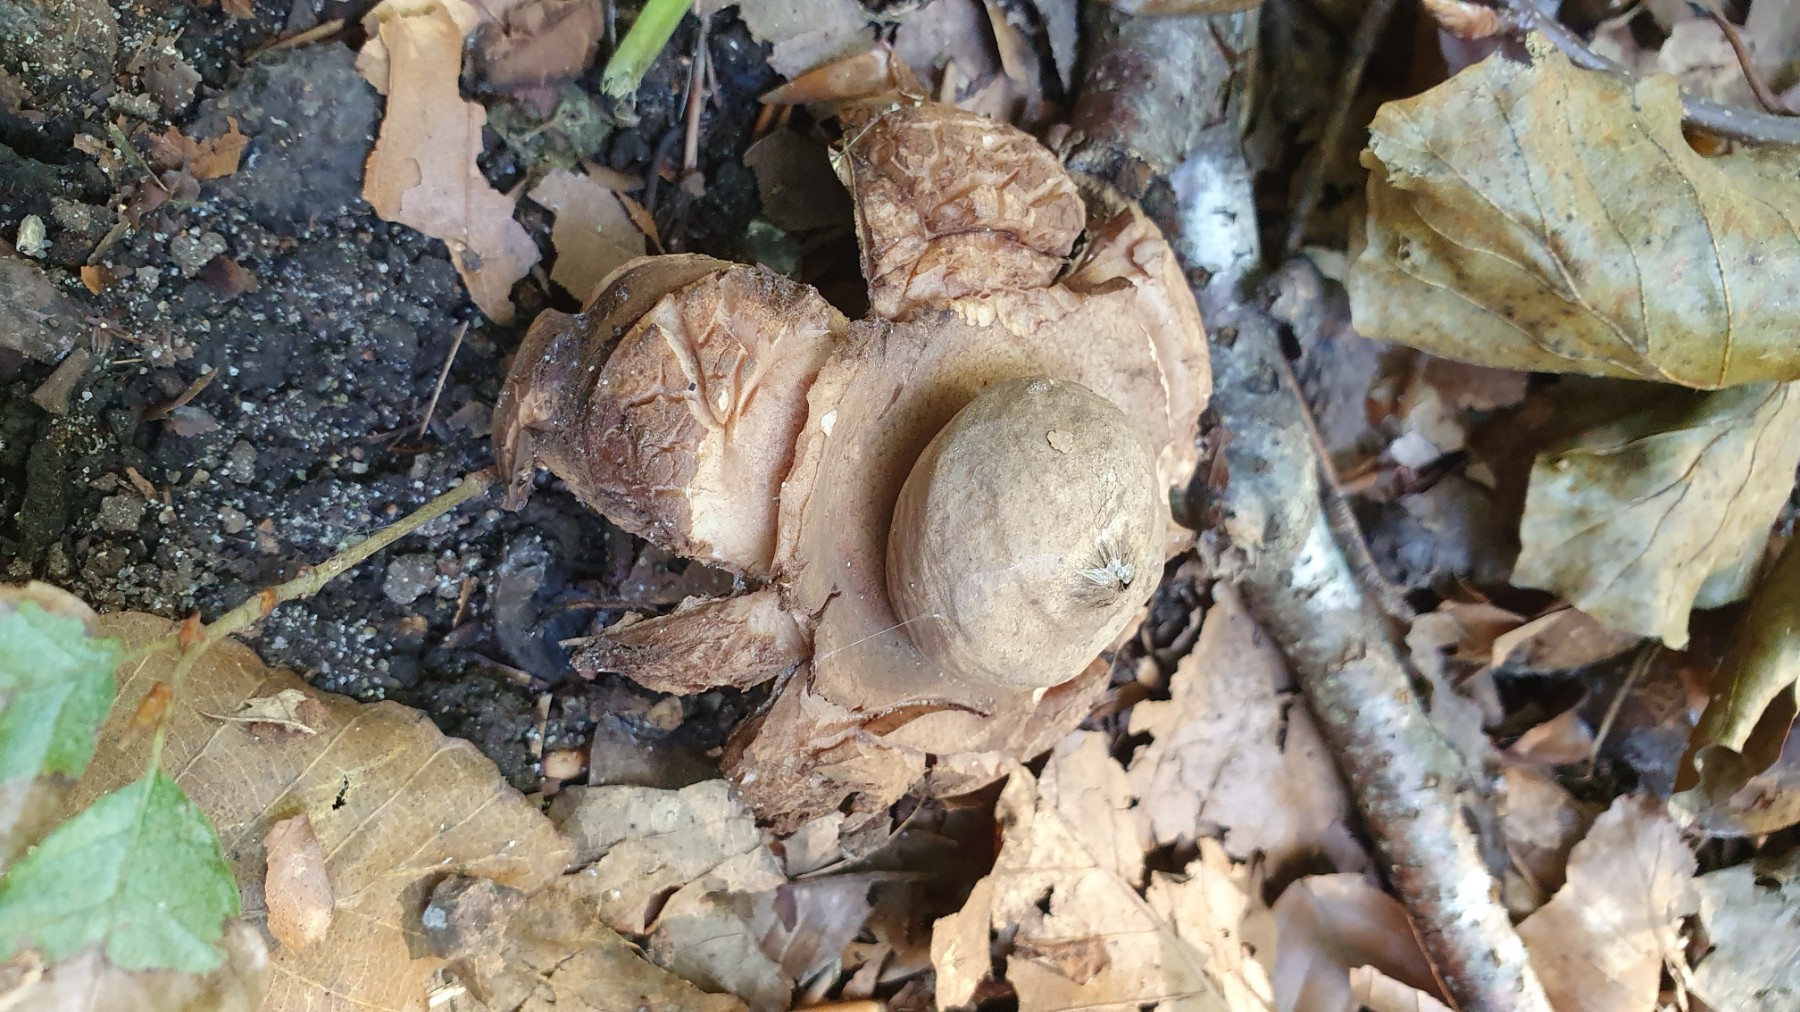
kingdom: Fungi
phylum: Basidiomycota
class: Agaricomycetes
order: Geastrales
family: Geastraceae
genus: Geastrum
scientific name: Geastrum michelianum
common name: kødet stjernebold
